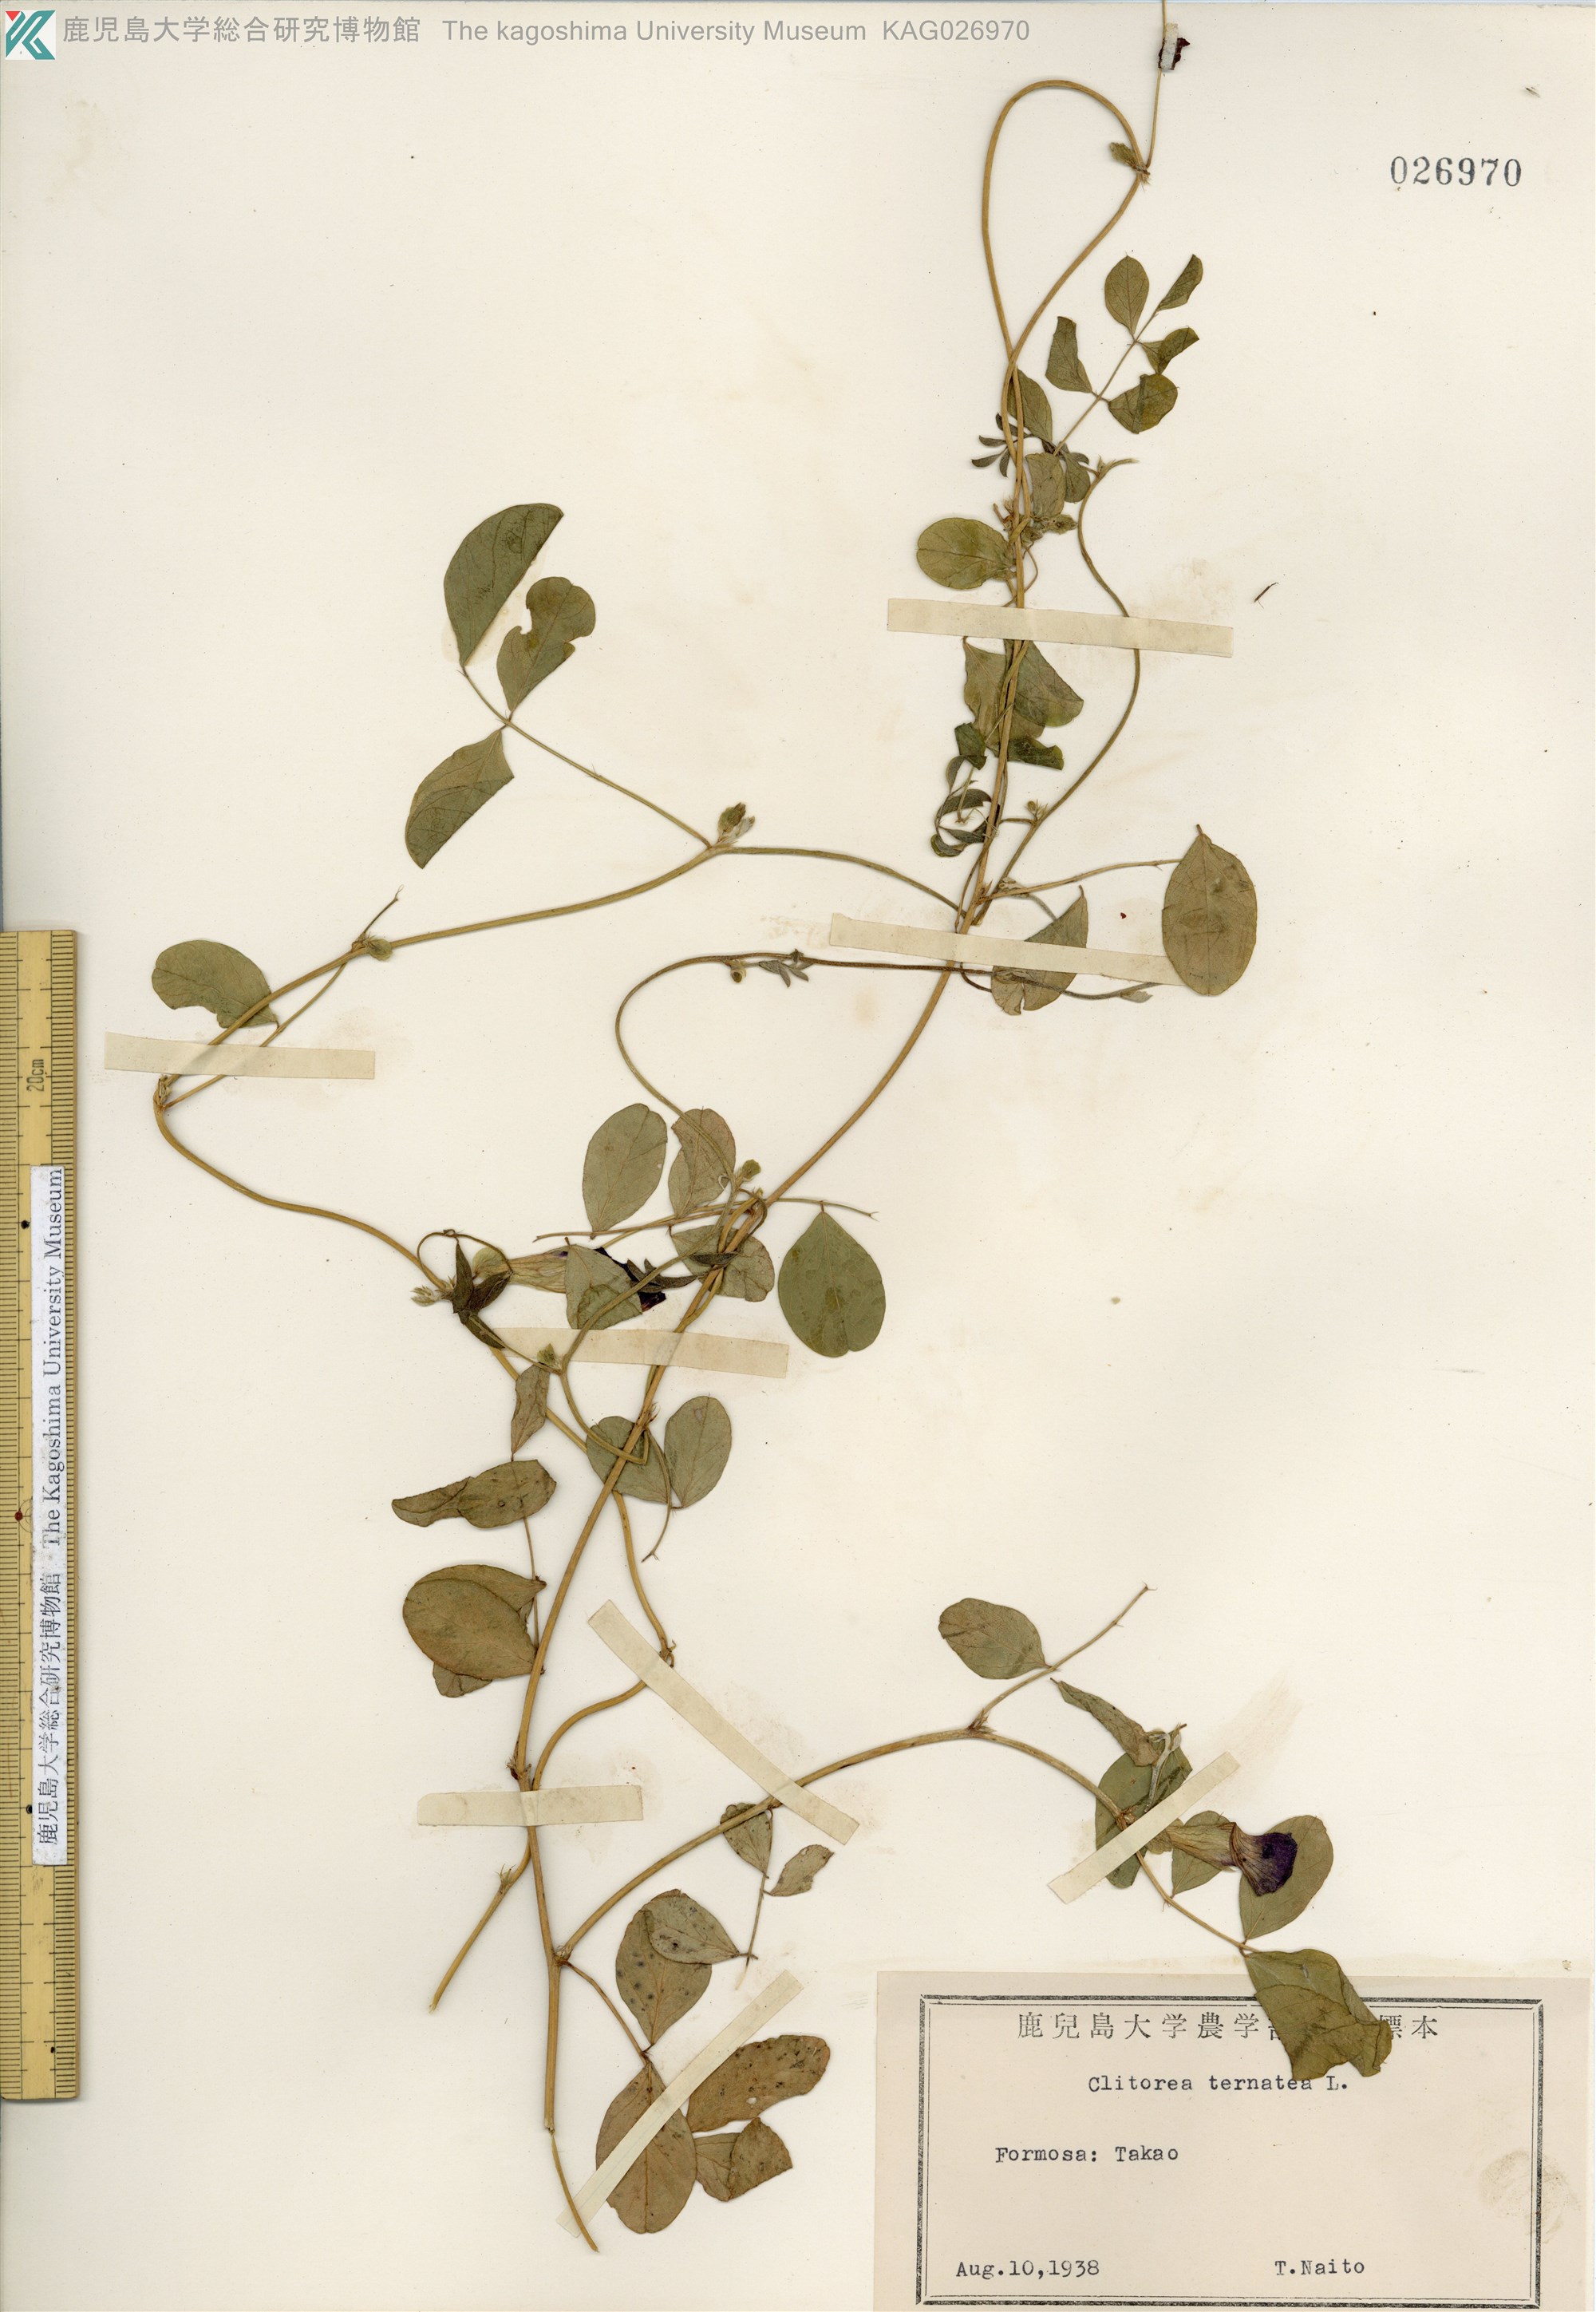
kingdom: Plantae
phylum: Tracheophyta
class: Magnoliopsida
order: Fabales
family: Fabaceae
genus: Clitoria
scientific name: Clitoria ternatea
